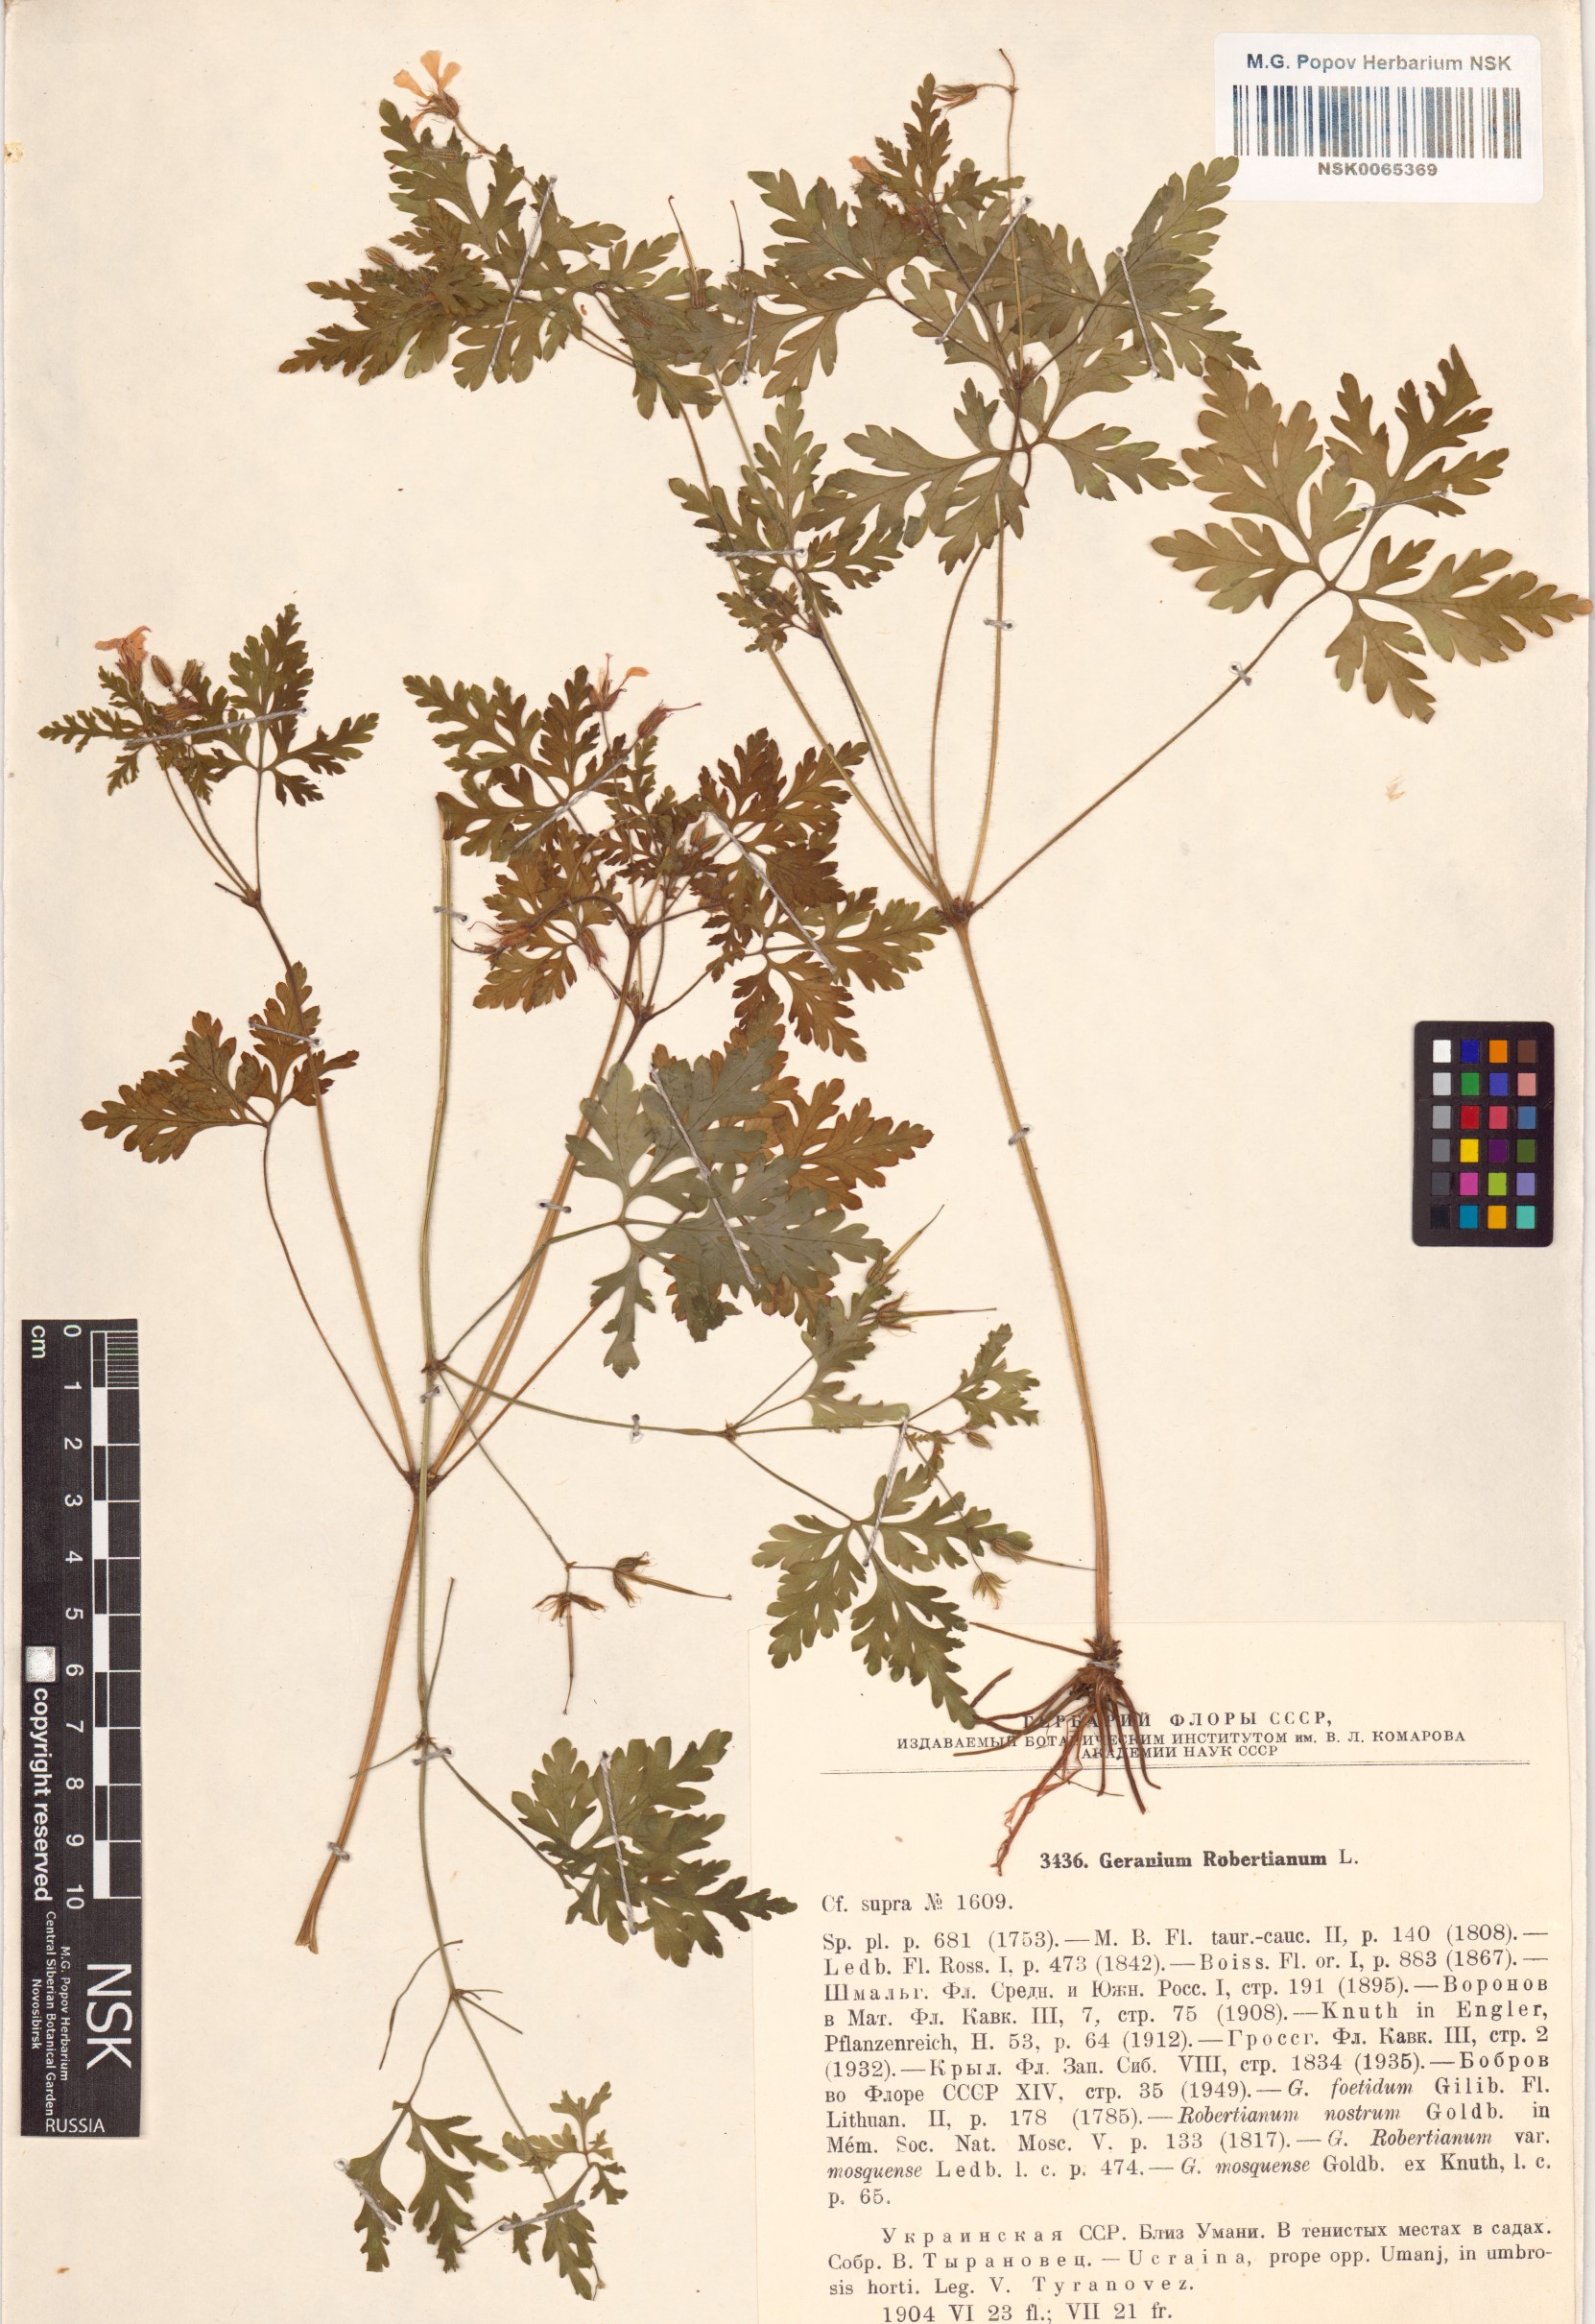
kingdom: Plantae
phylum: Tracheophyta
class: Magnoliopsida
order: Geraniales
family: Geraniaceae
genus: Geranium
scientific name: Geranium robertianum
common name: Herb-robert
